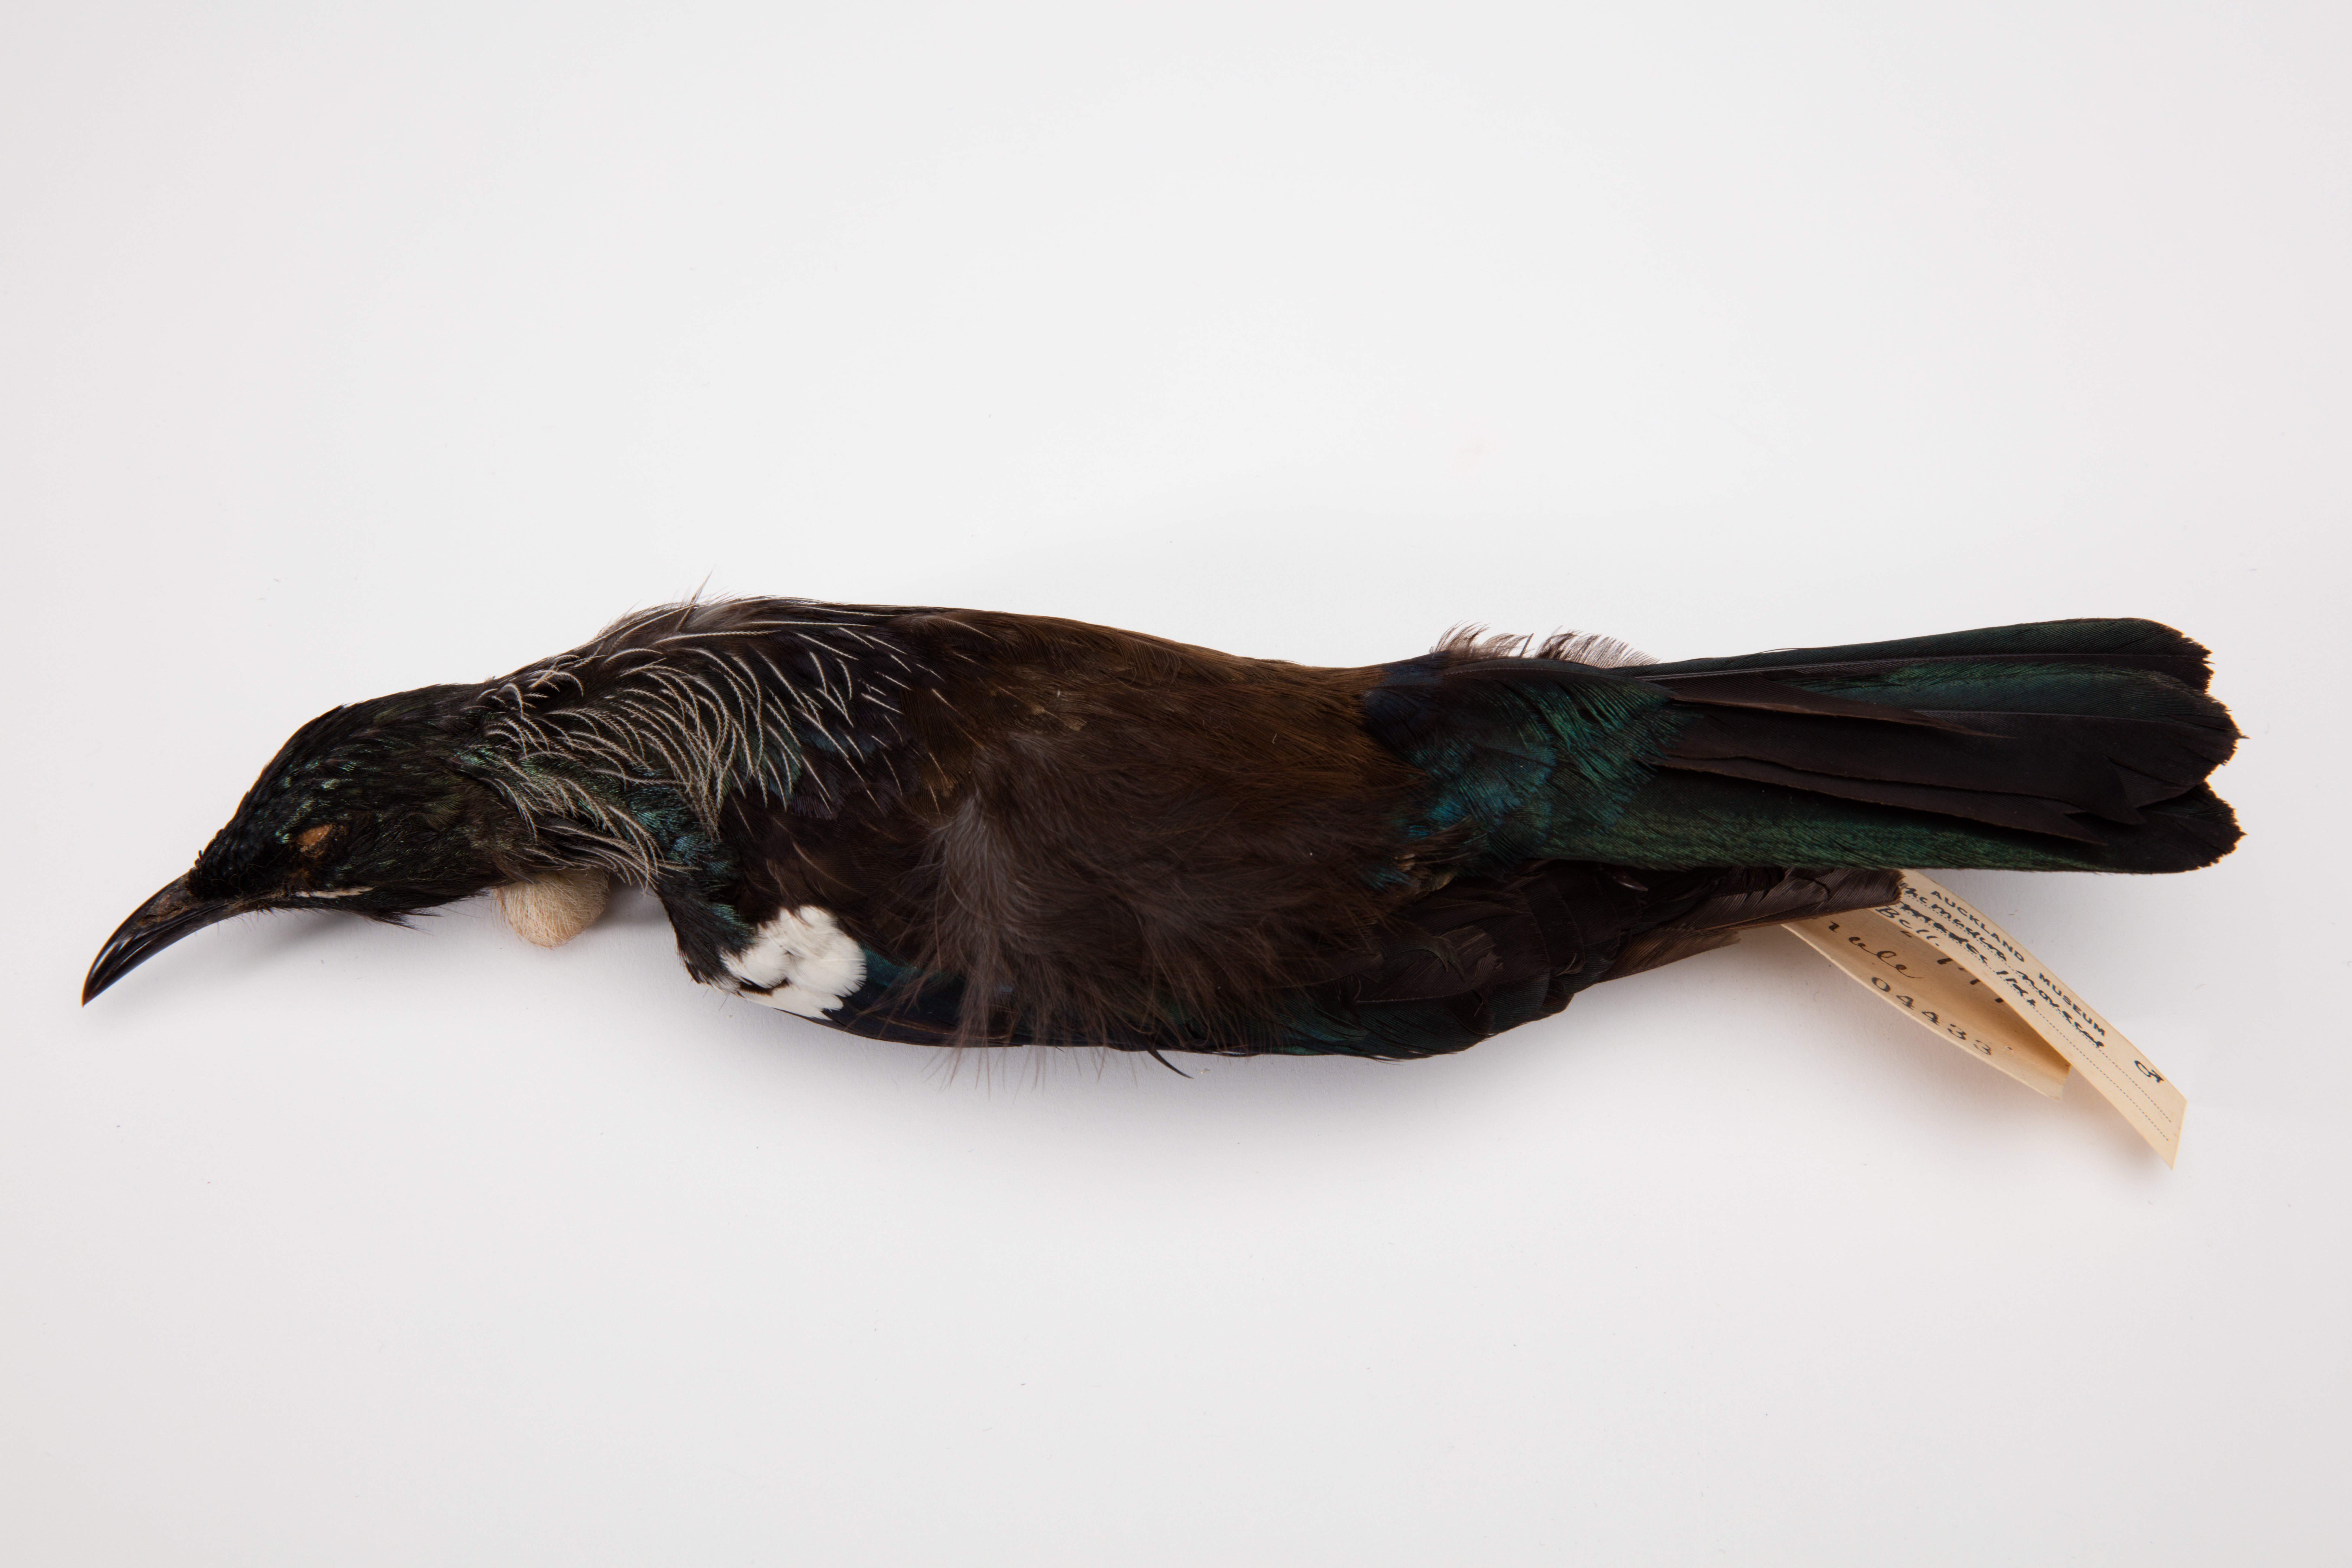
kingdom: Animalia
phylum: Chordata
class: Aves
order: Passeriformes
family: Meliphagidae
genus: Prosthemadera
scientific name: Prosthemadera novaeseelandiae
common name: Tui
